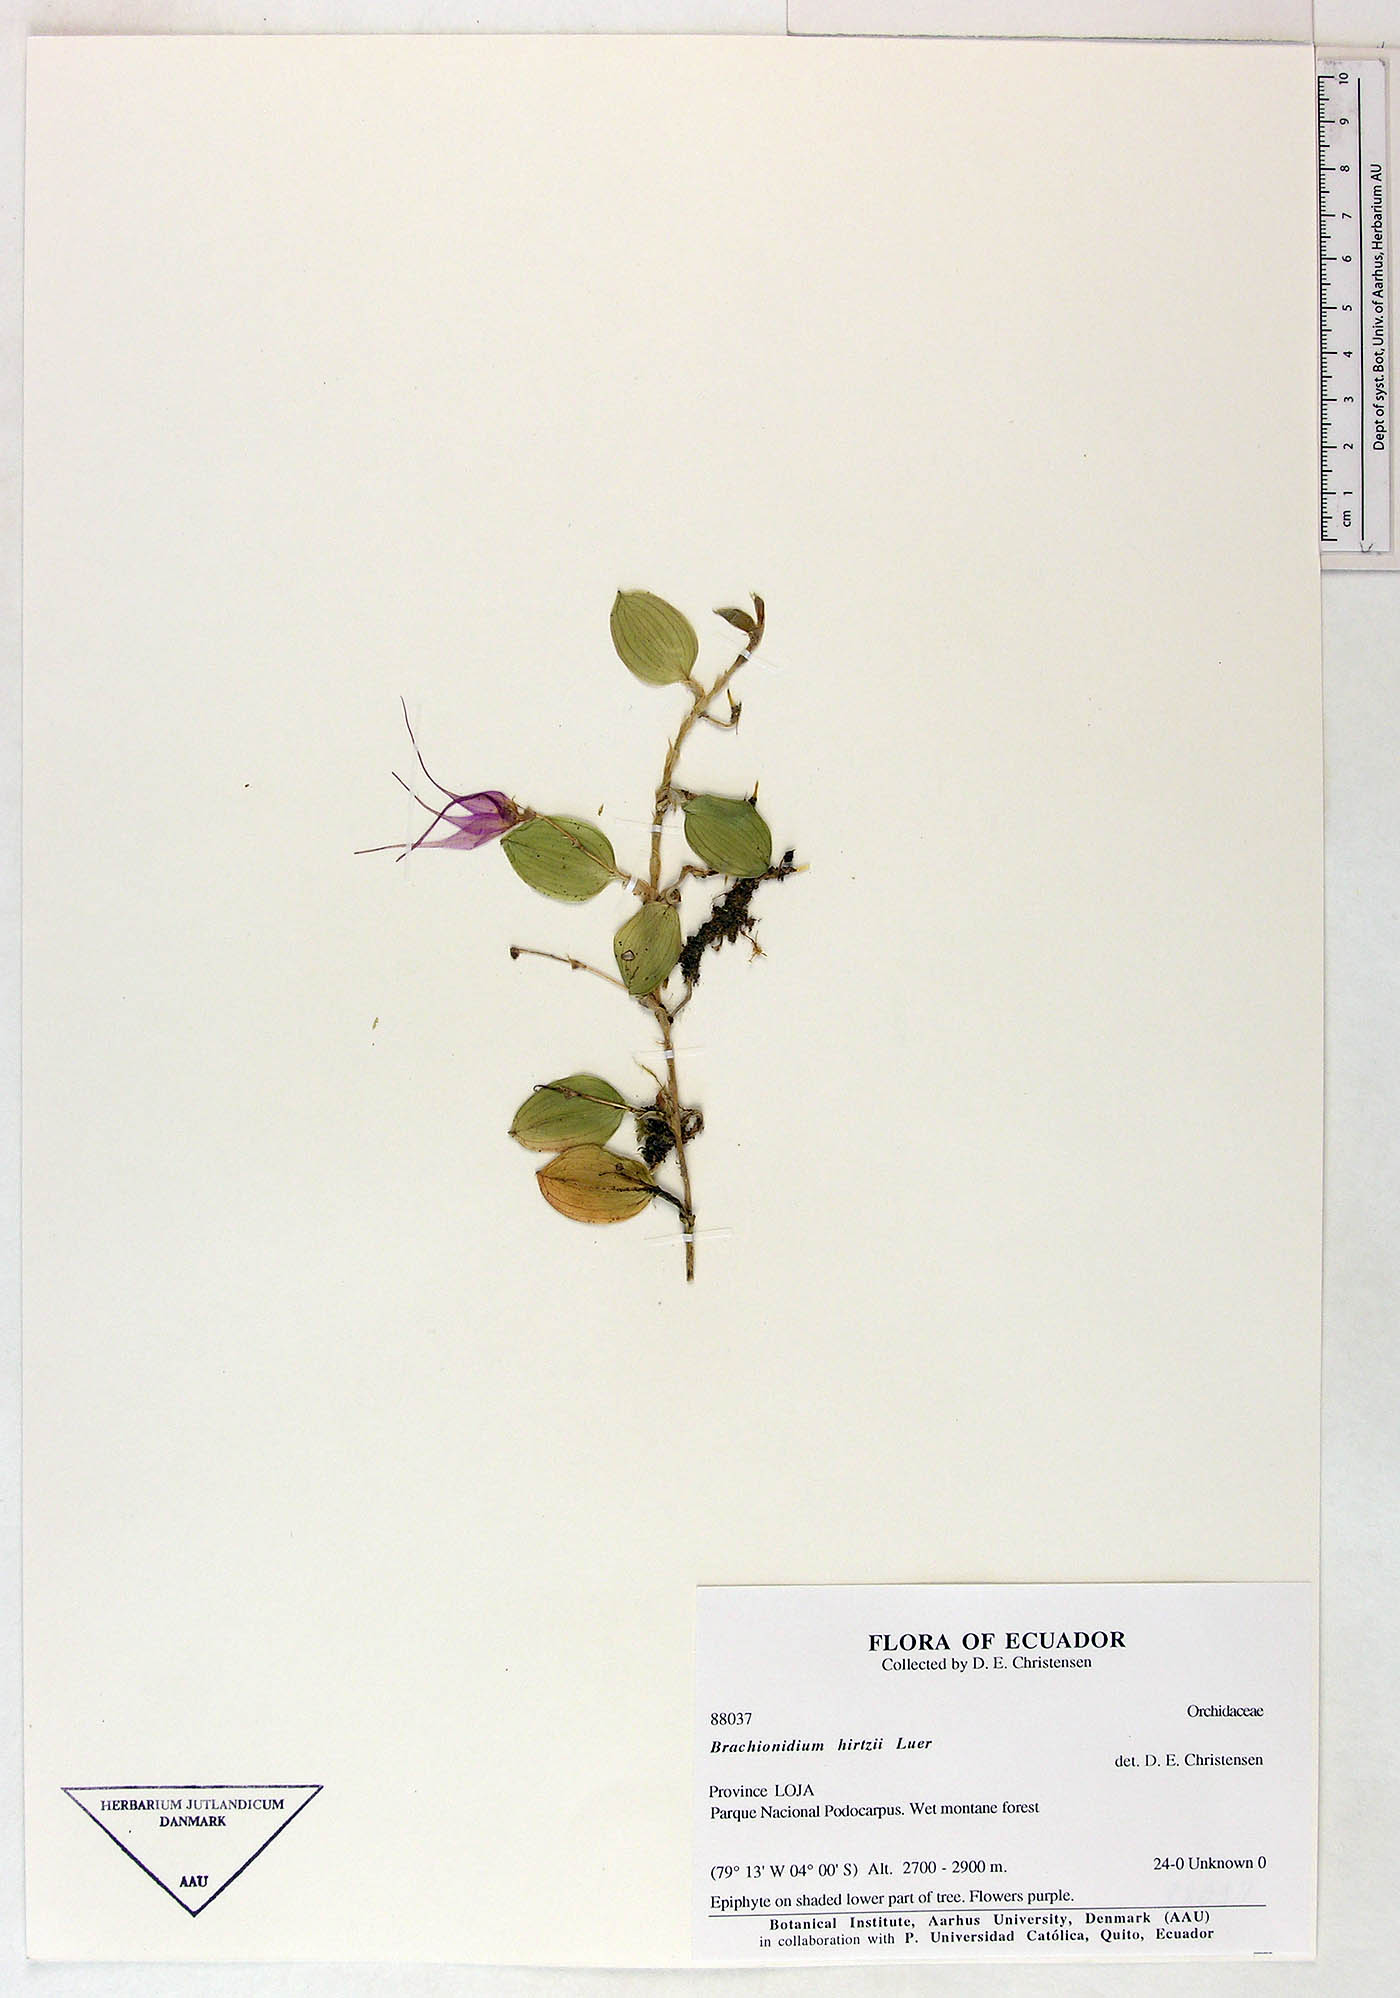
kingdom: Plantae
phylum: Tracheophyta
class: Liliopsida
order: Asparagales
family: Orchidaceae
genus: Brachionidium
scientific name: Brachionidium hirtzii
